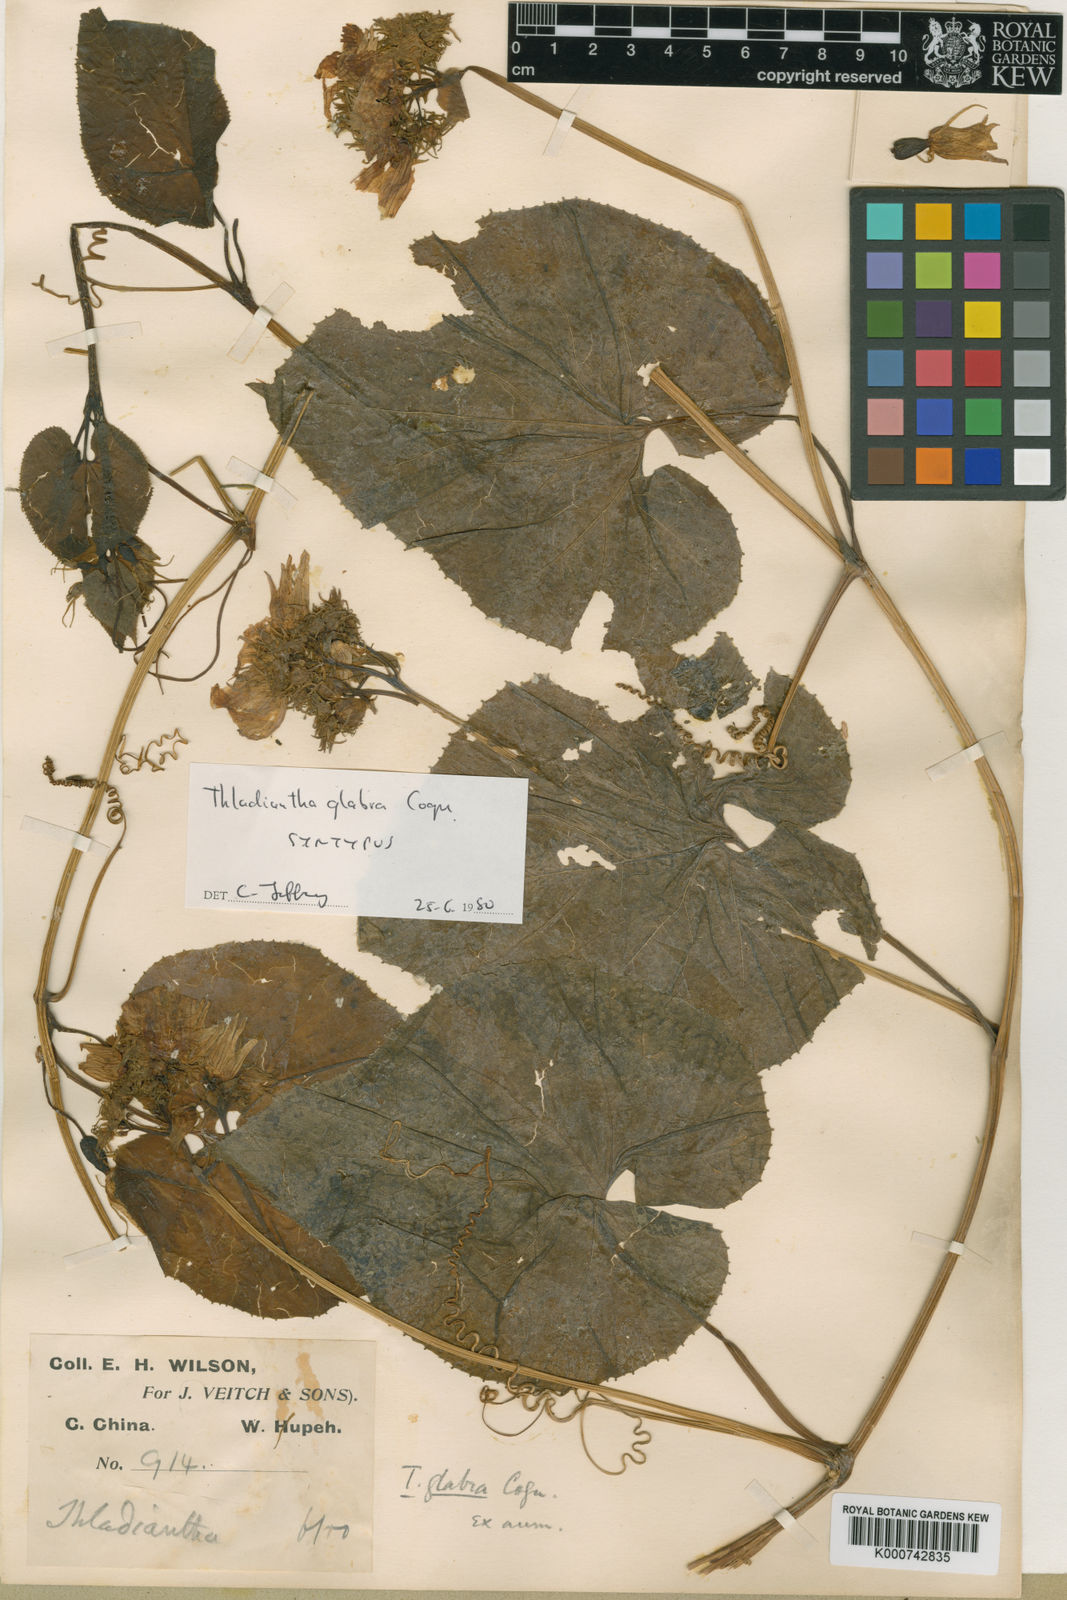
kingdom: Plantae
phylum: Tracheophyta
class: Magnoliopsida
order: Cucurbitales
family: Cucurbitaceae
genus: Thladiantha
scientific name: Thladiantha
